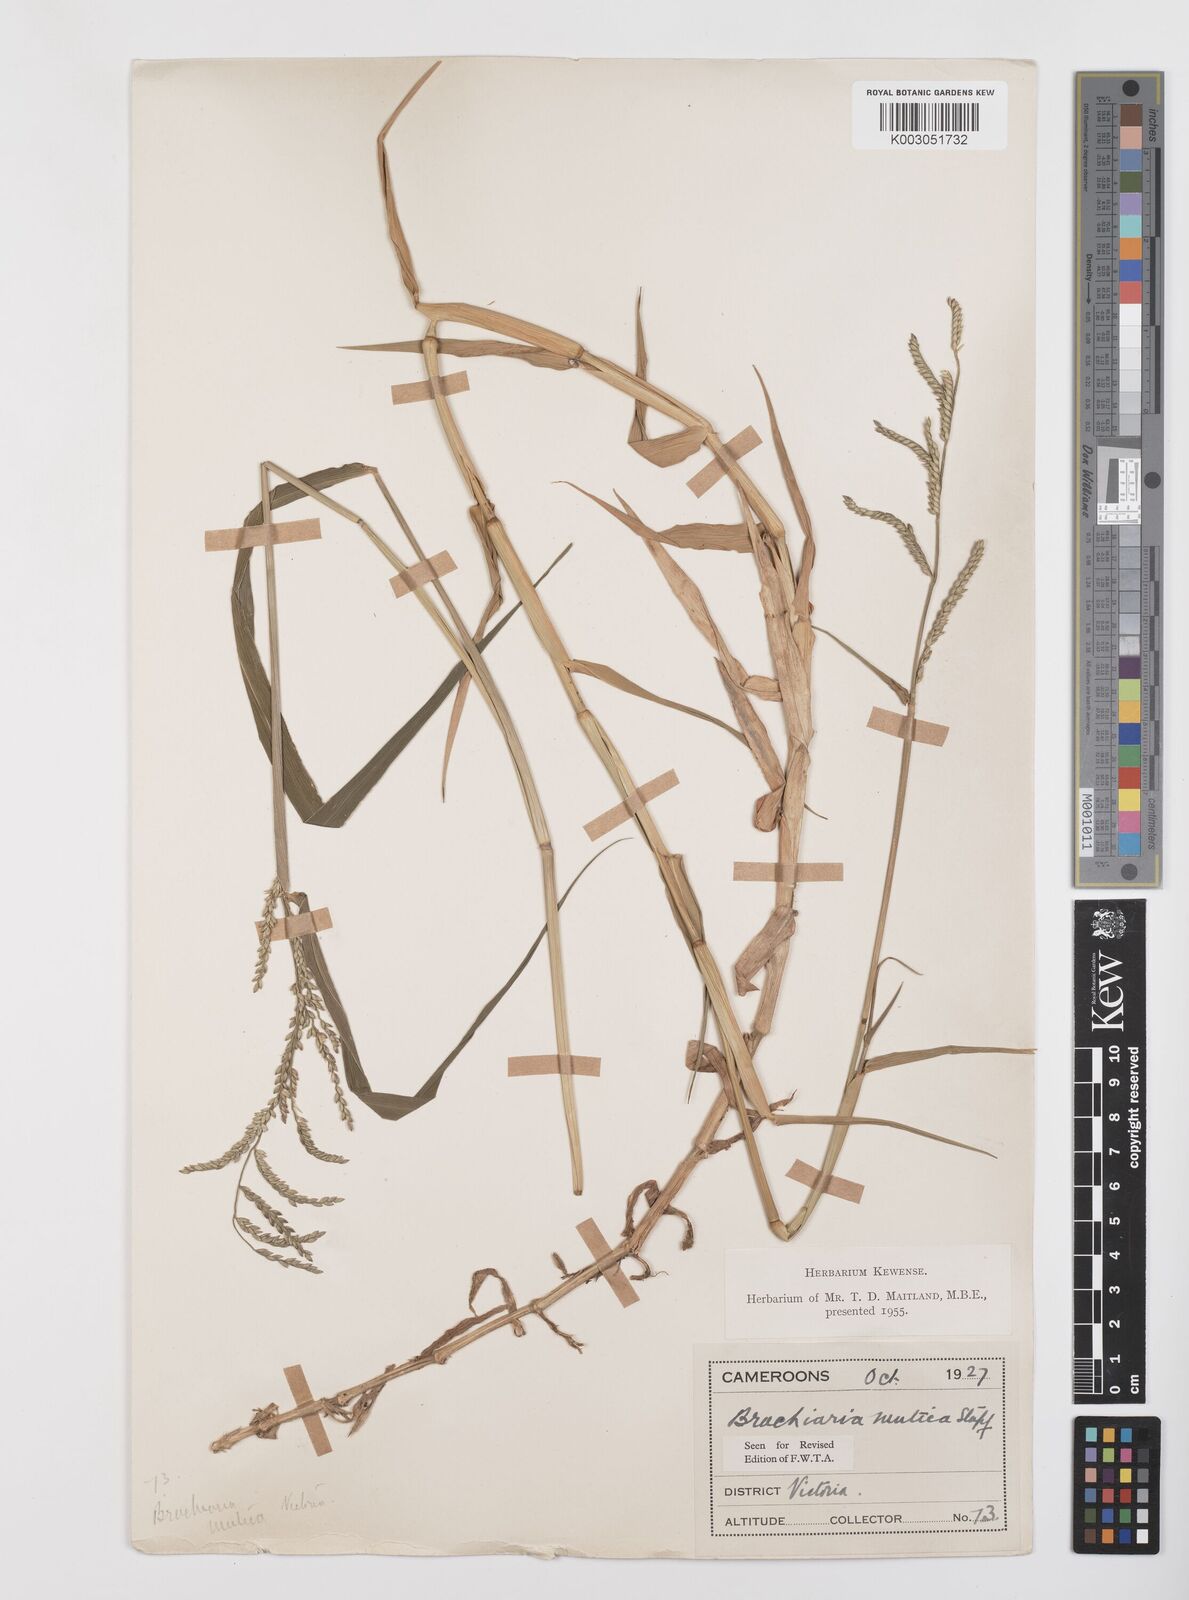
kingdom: Plantae
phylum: Tracheophyta
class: Liliopsida
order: Poales
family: Poaceae
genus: Urochloa
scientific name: Urochloa mutica
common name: Para grass
